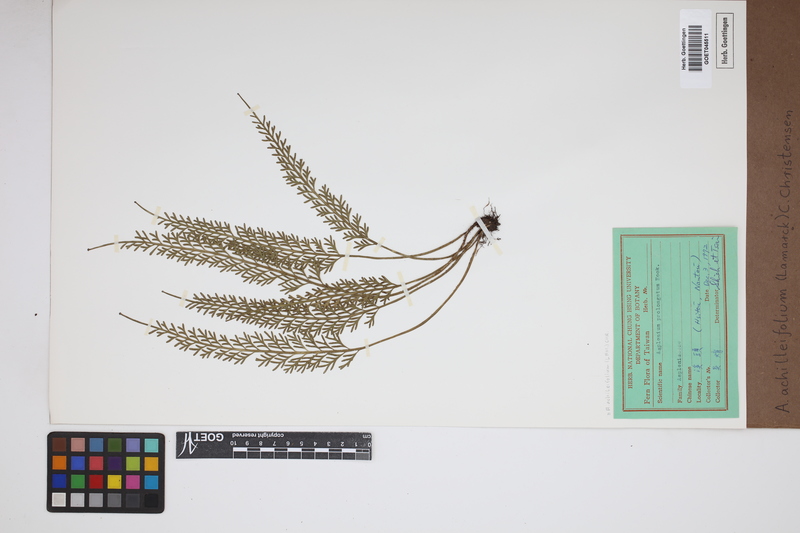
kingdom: Plantae
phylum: Tracheophyta
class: Polypodiopsida
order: Polypodiales
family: Aspleniaceae
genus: Asplenium
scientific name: Asplenium rutifolium
